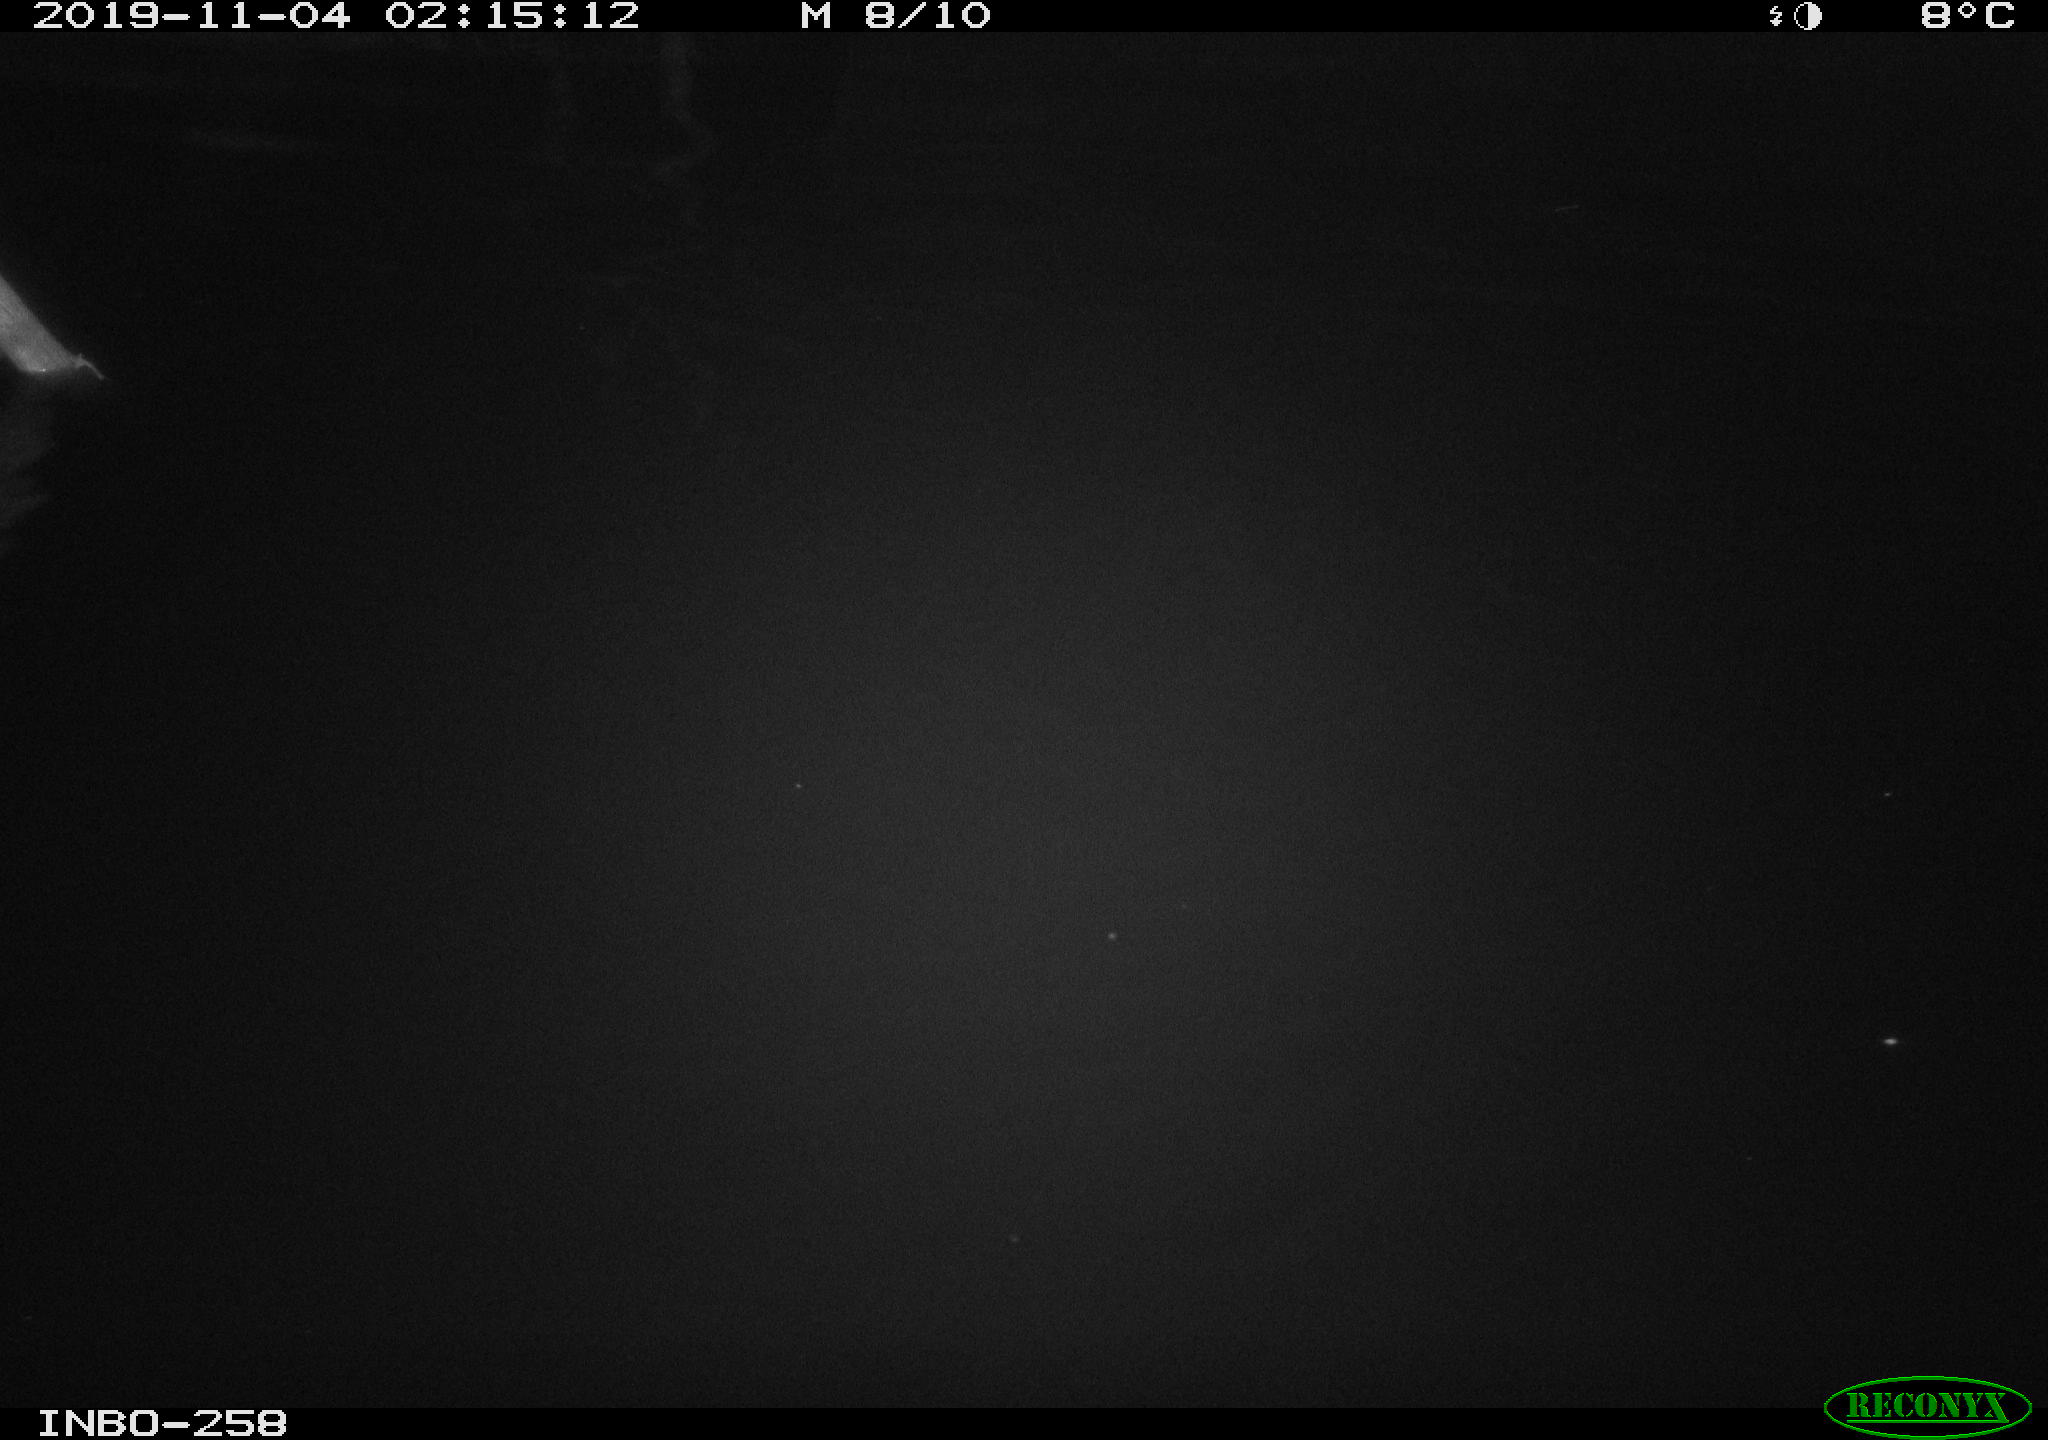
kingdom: Animalia
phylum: Chordata
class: Aves
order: Anseriformes
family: Anatidae
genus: Anas
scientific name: Anas platyrhynchos
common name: Mallard
